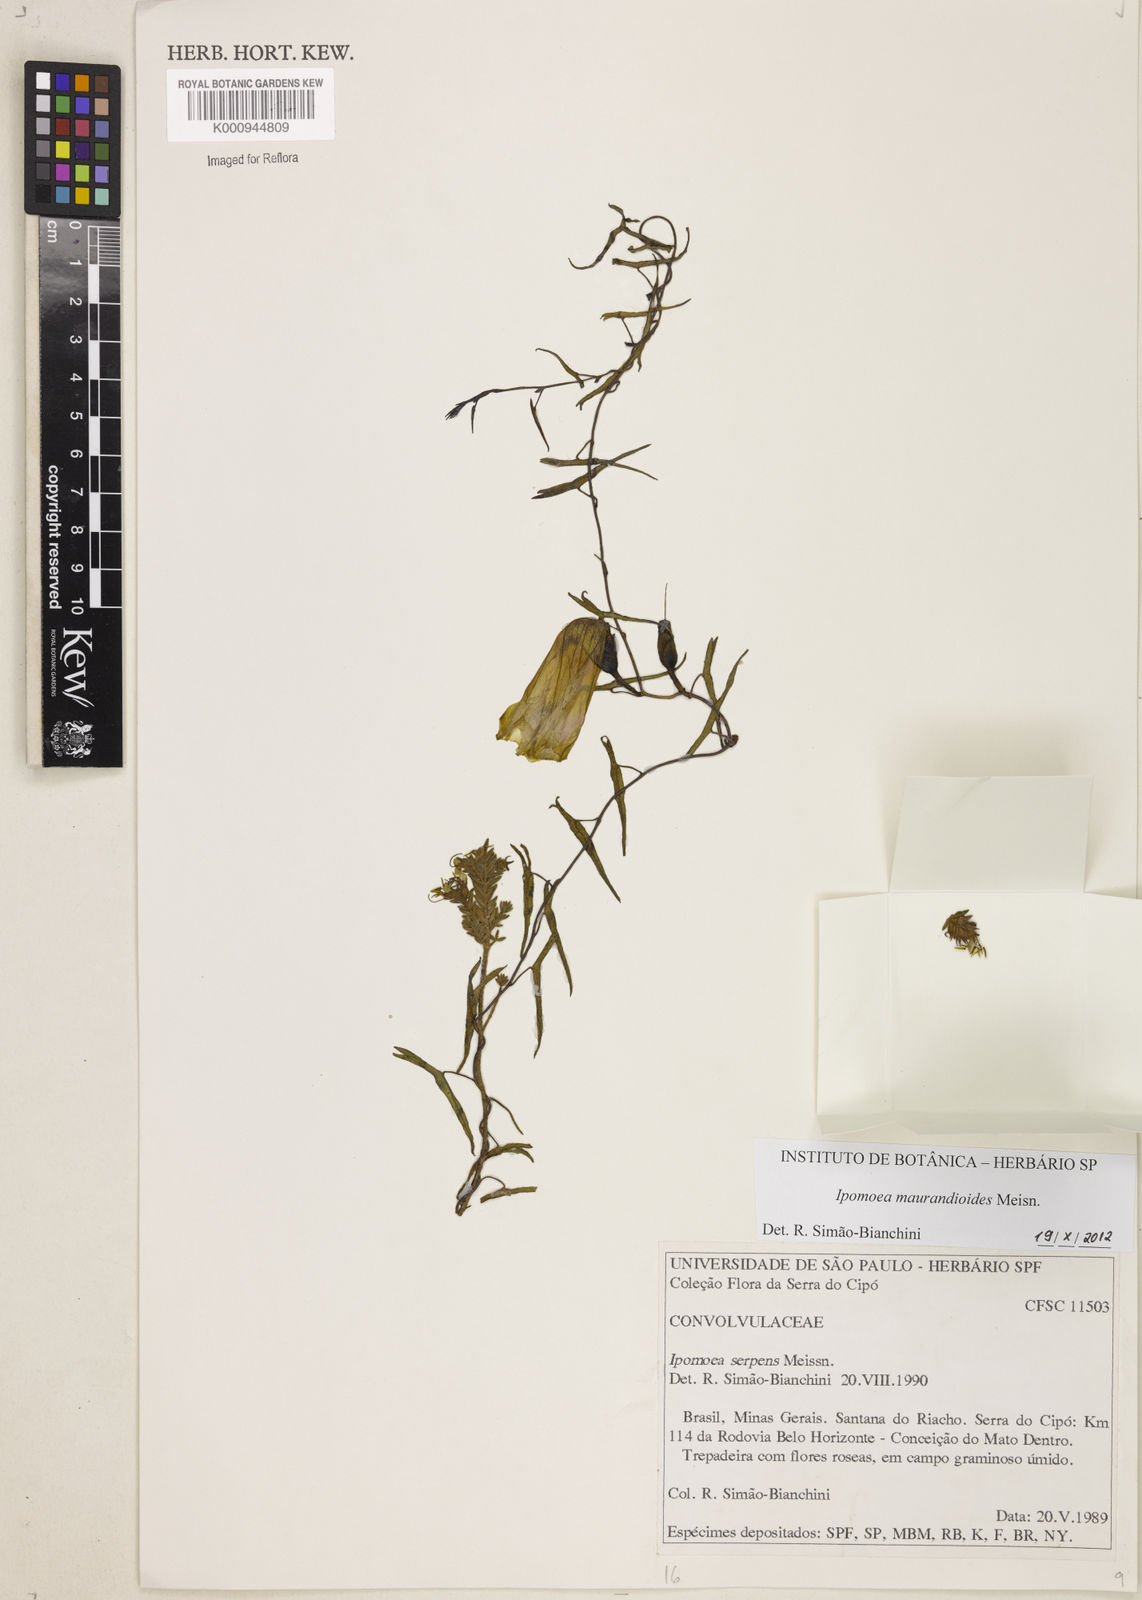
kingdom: Plantae
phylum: Tracheophyta
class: Magnoliopsida
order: Solanales
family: Convolvulaceae
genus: Ipomoea
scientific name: Ipomoea maurandioides
